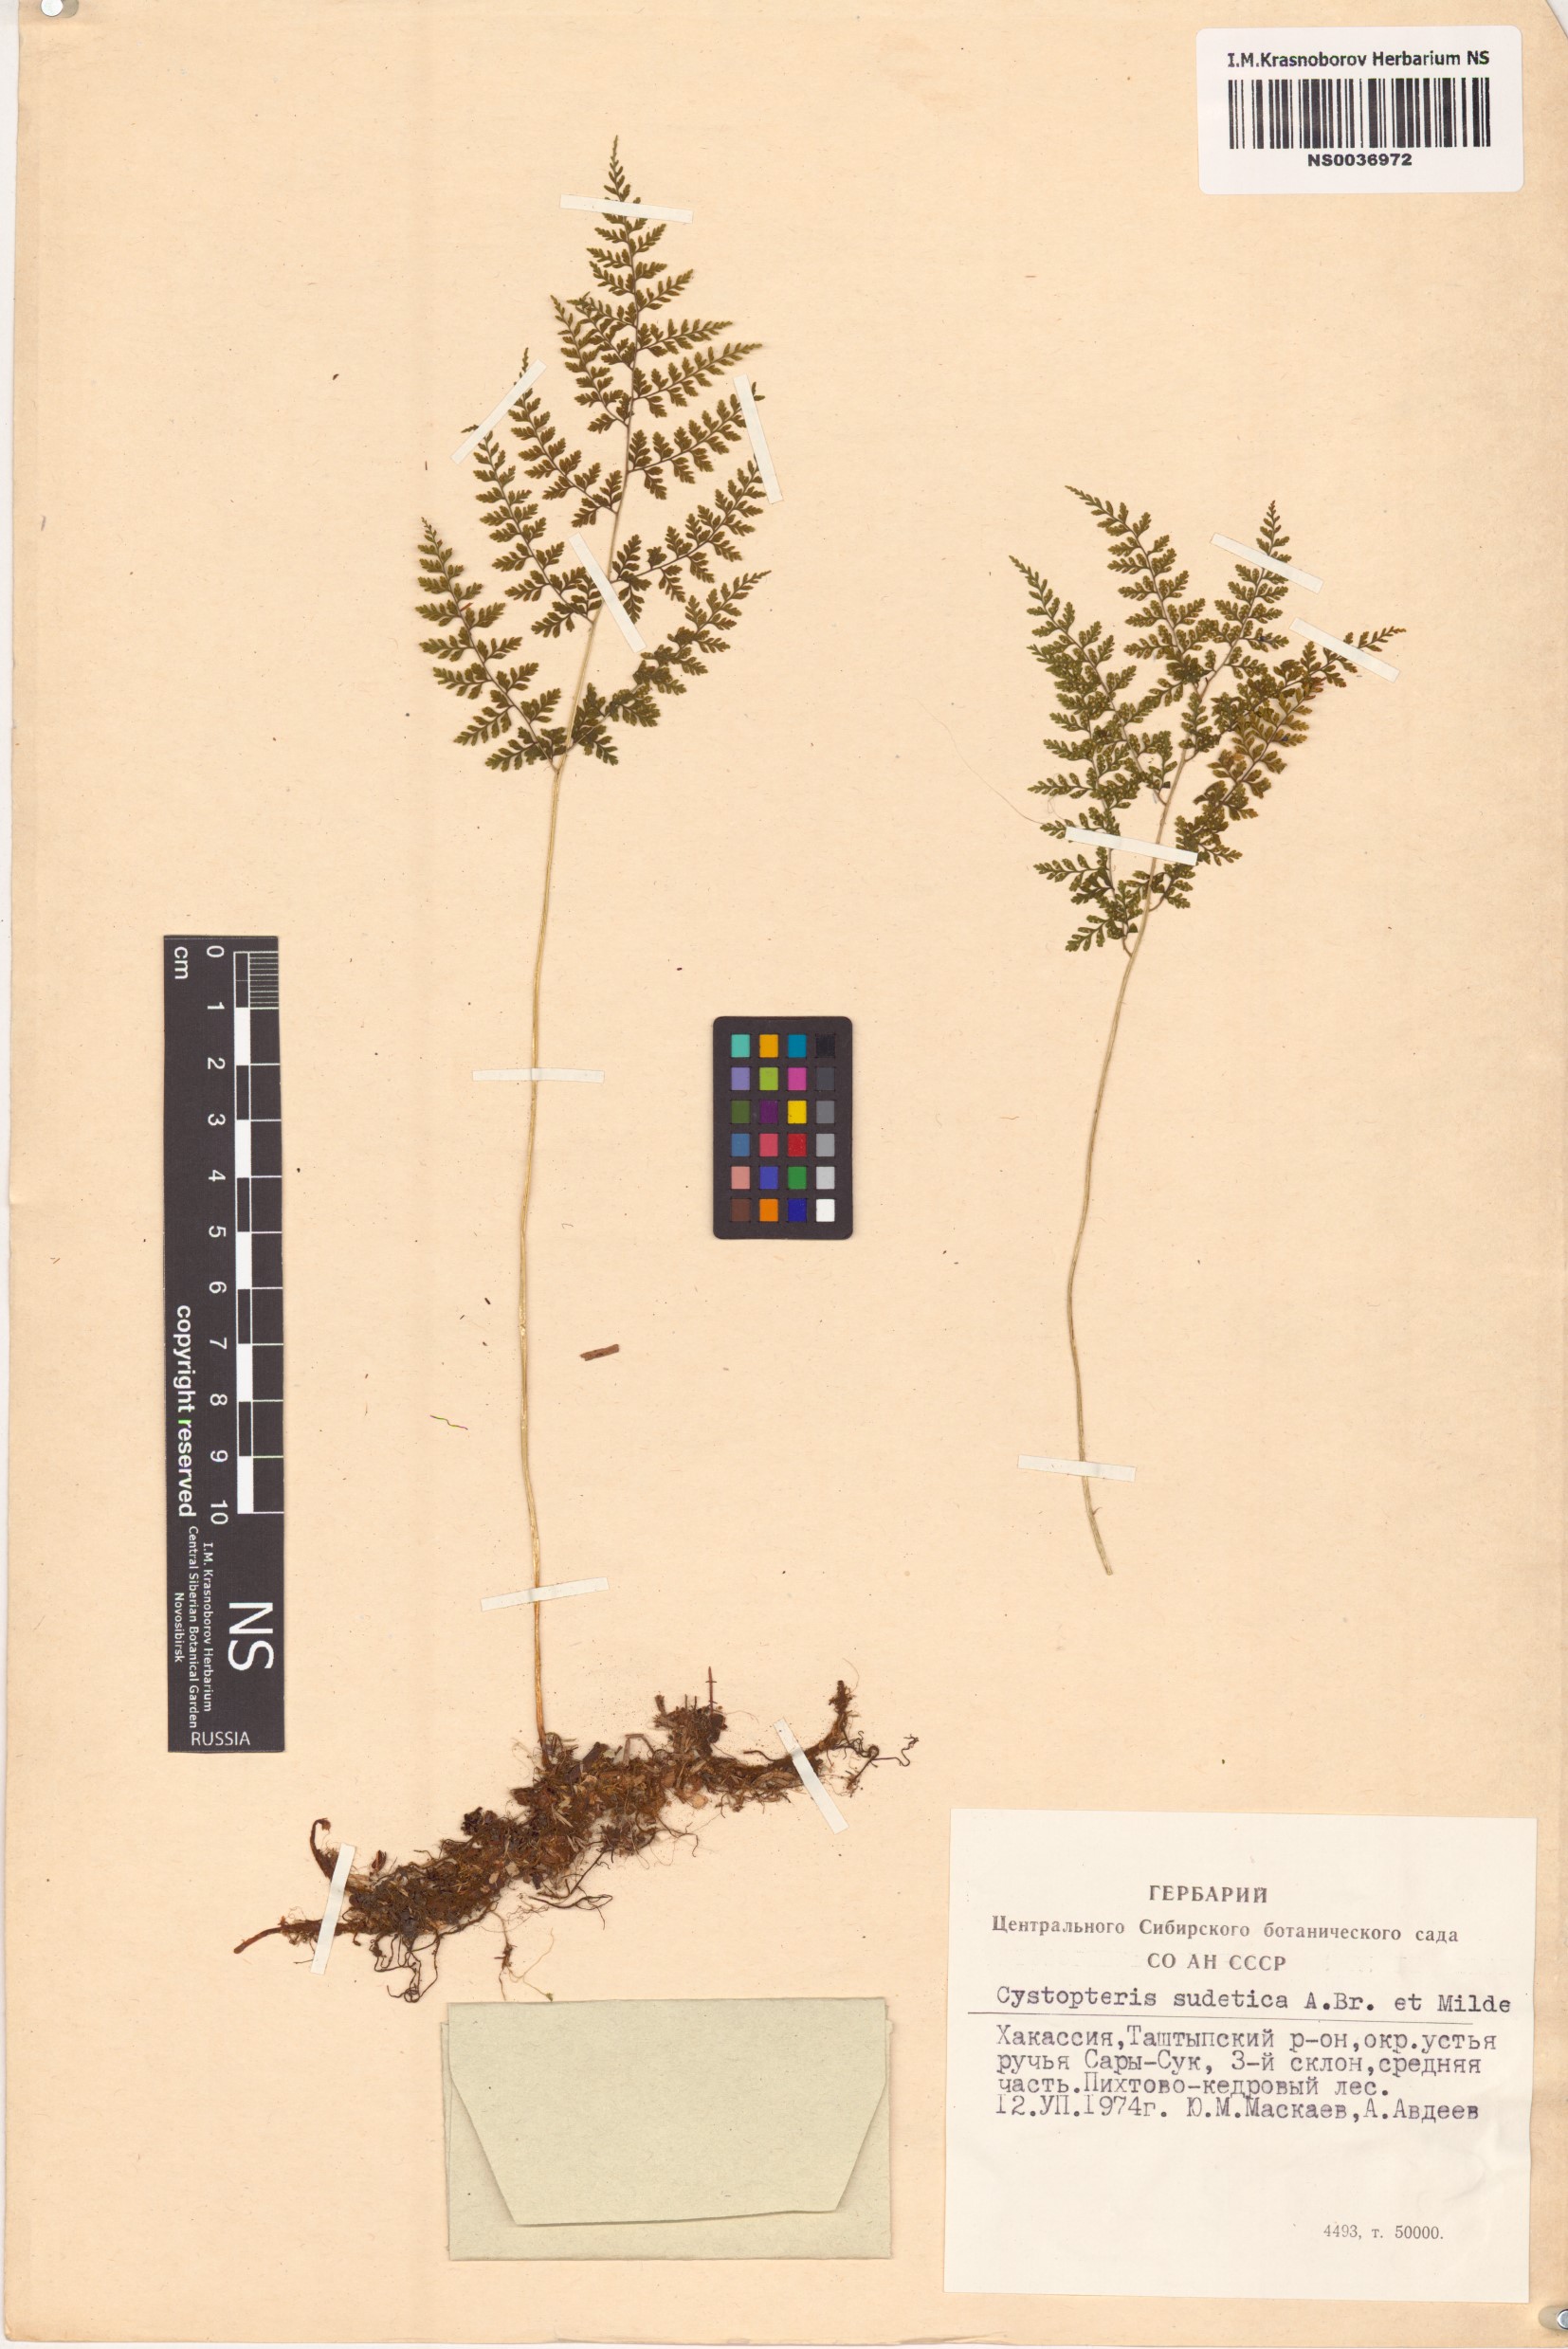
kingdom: Plantae
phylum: Tracheophyta
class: Polypodiopsida
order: Polypodiales
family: Cystopteridaceae
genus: Cystopteris
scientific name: Cystopteris sudetica
